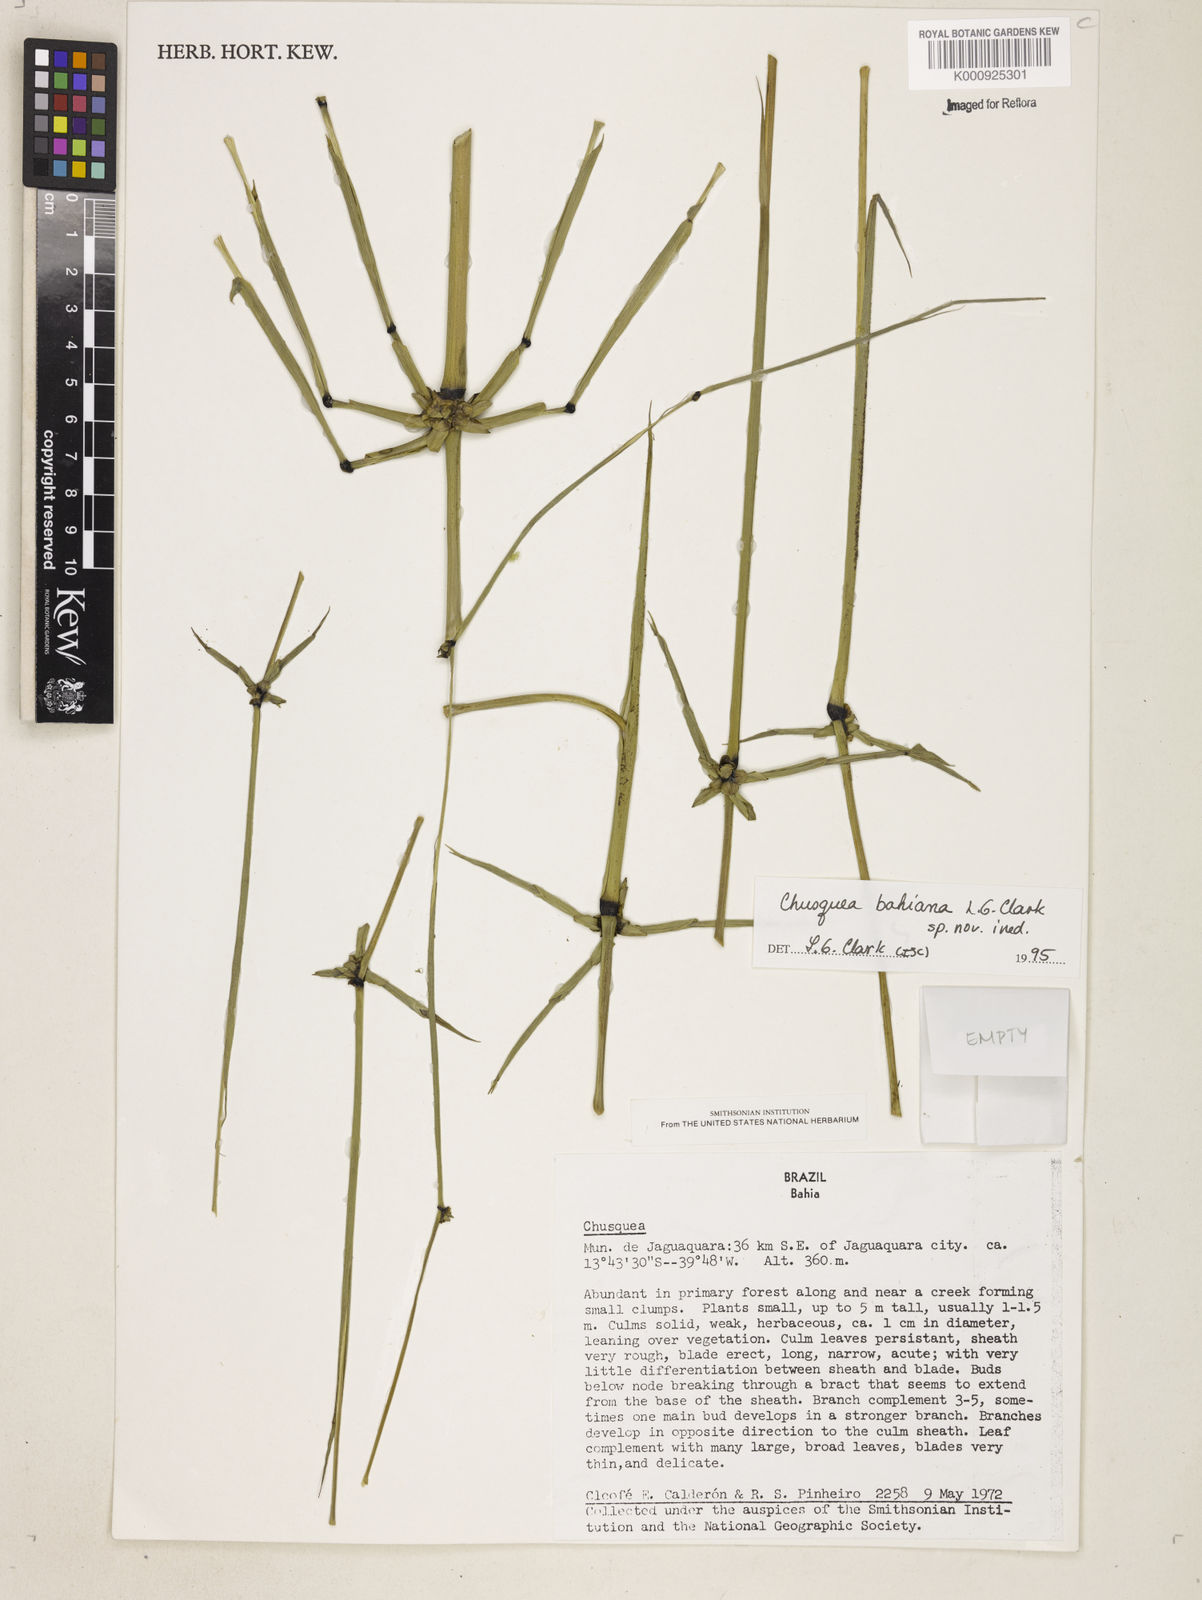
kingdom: Plantae
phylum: Tracheophyta
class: Liliopsida
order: Poales
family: Poaceae
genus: Chusquea
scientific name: Chusquea bahiana
